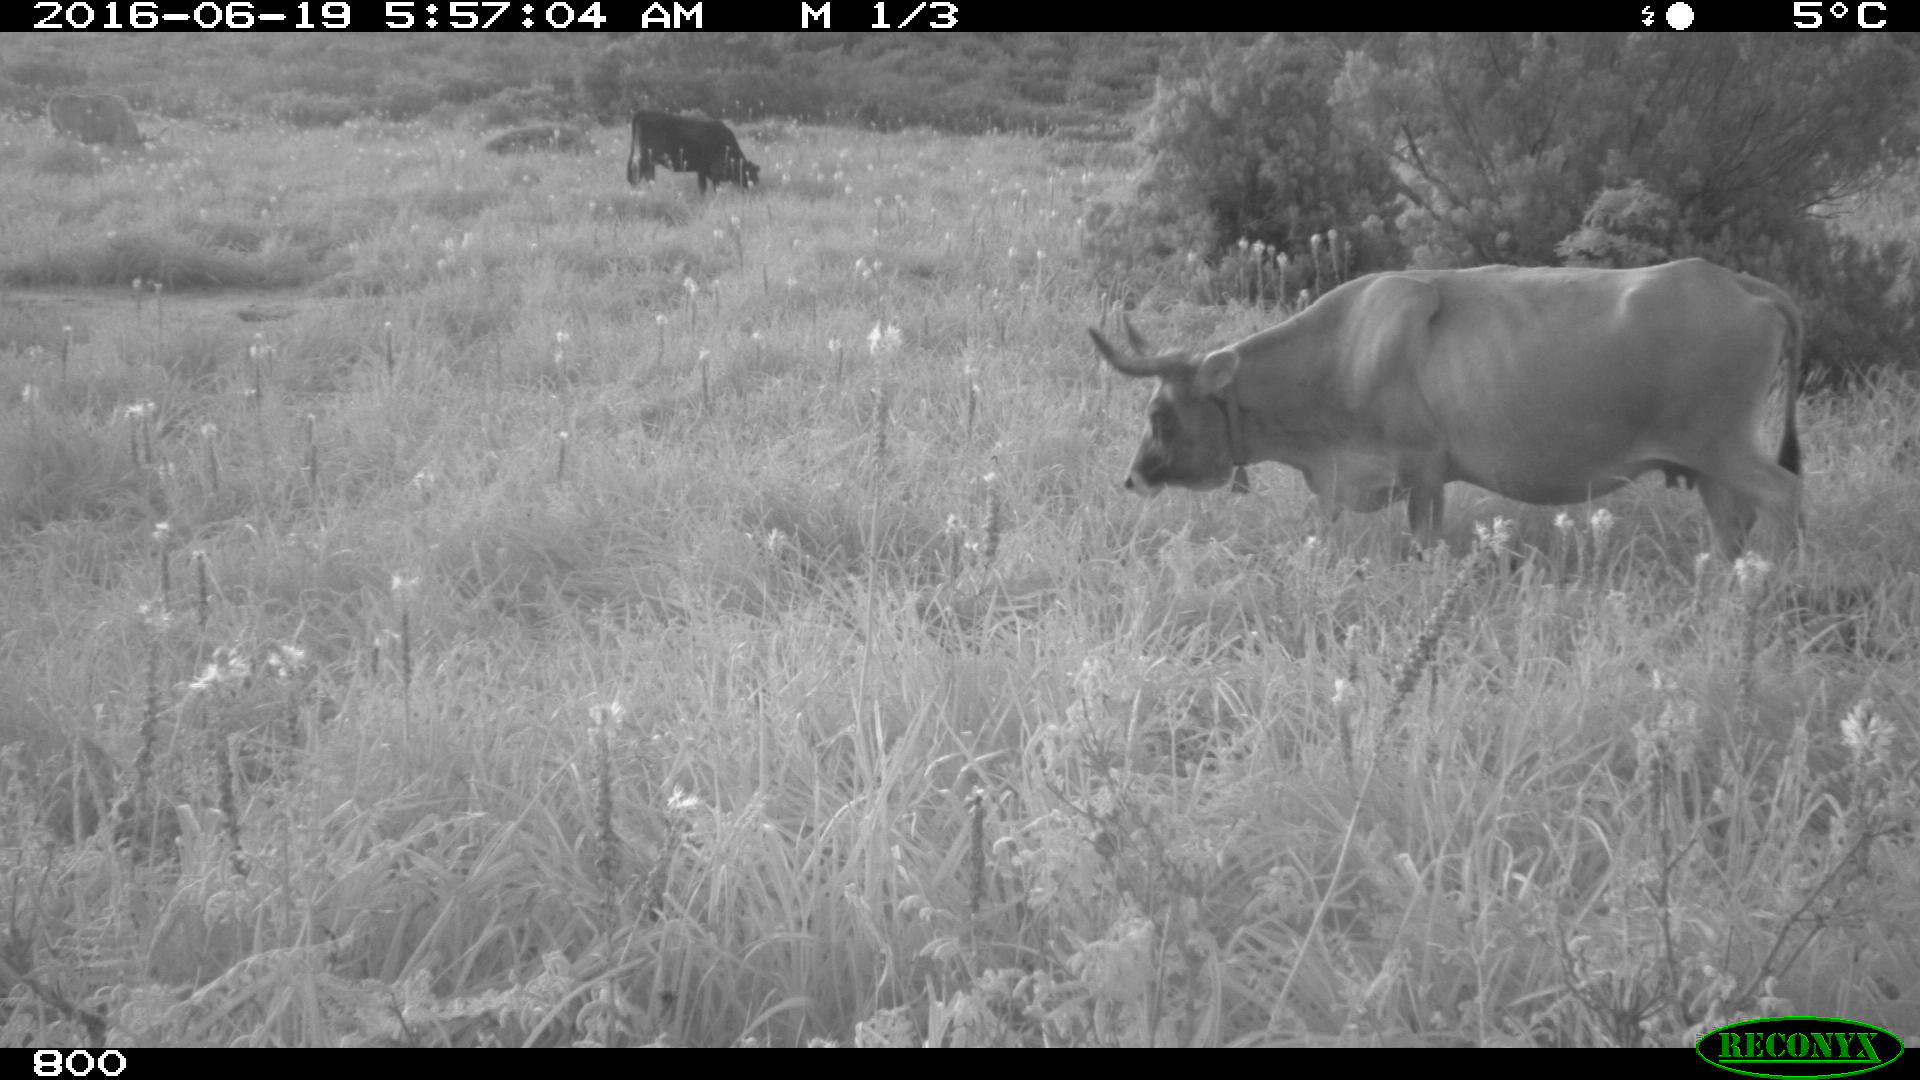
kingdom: Animalia
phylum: Chordata
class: Mammalia
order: Artiodactyla
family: Bovidae
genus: Bos
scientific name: Bos taurus
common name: Domesticated cattle
